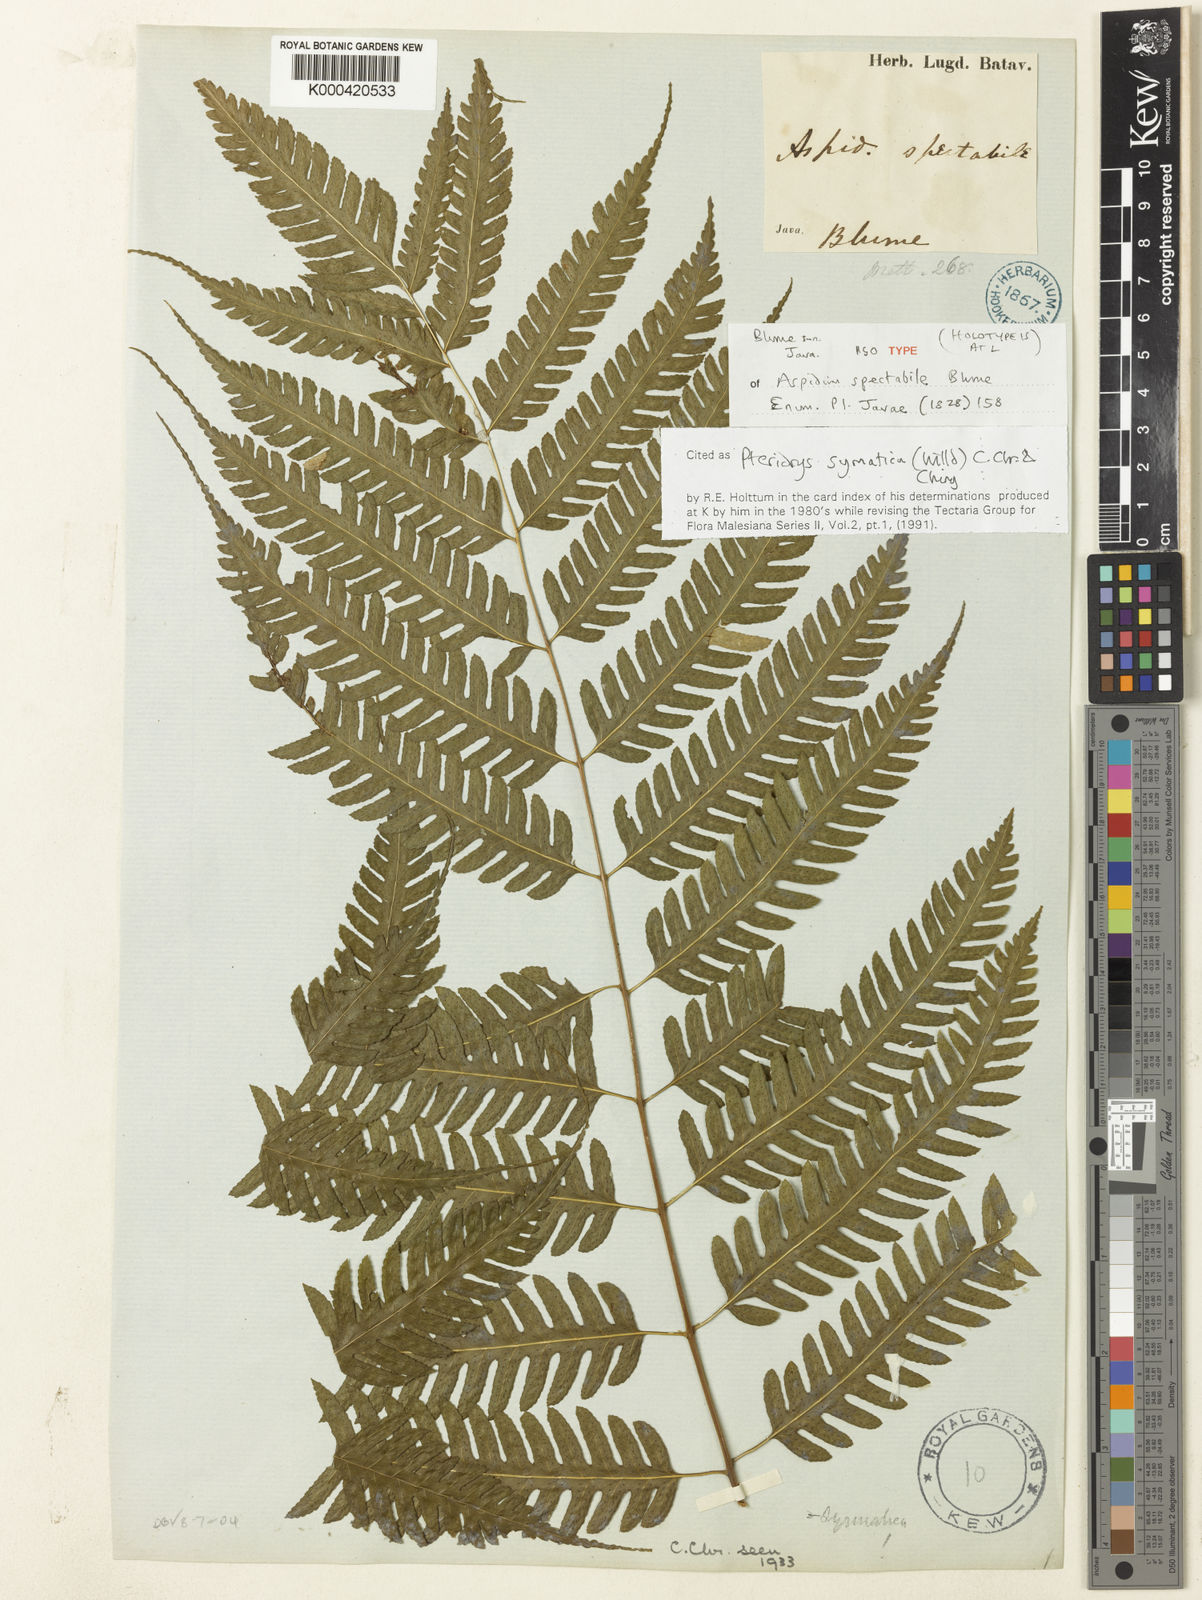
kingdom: Plantae
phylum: Tracheophyta
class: Polypodiopsida
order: Polypodiales
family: Tectariaceae
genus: Pteridrys
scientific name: Pteridrys syrmatica
